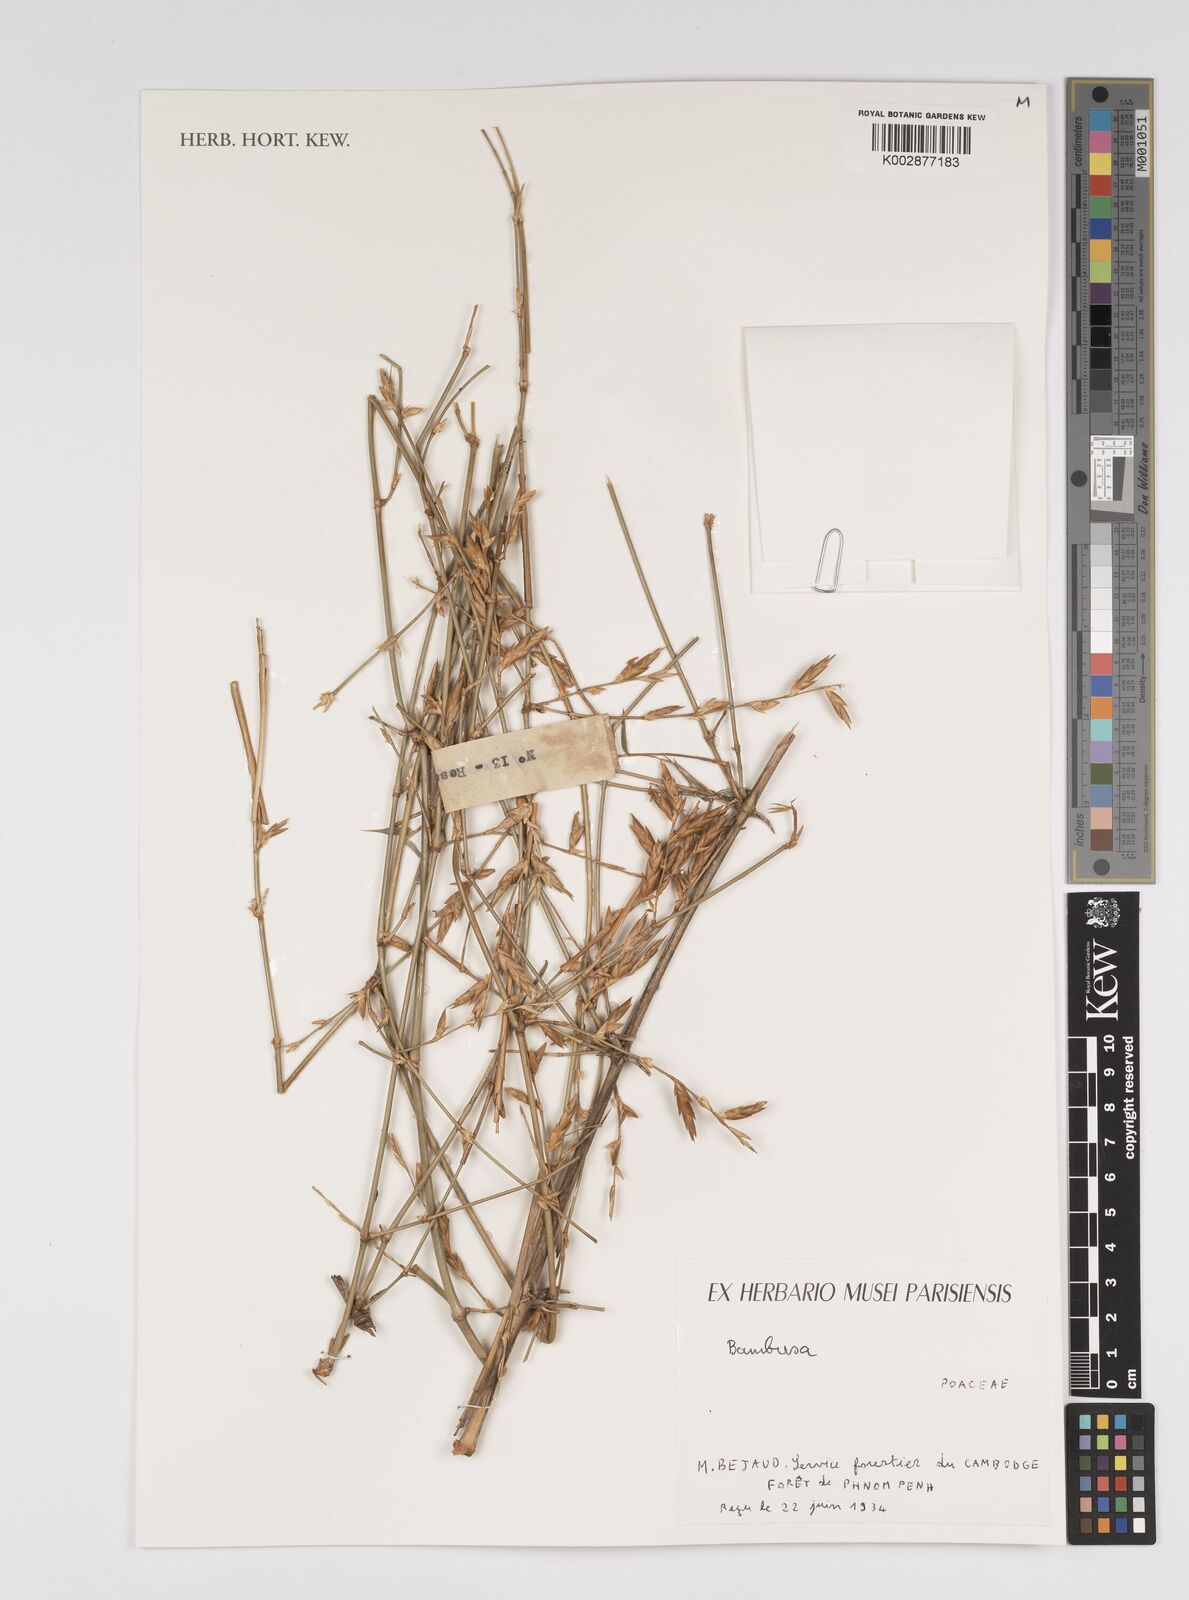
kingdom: Plantae
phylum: Tracheophyta
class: Liliopsida
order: Poales
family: Poaceae
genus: Bambusa
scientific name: Bambusa
